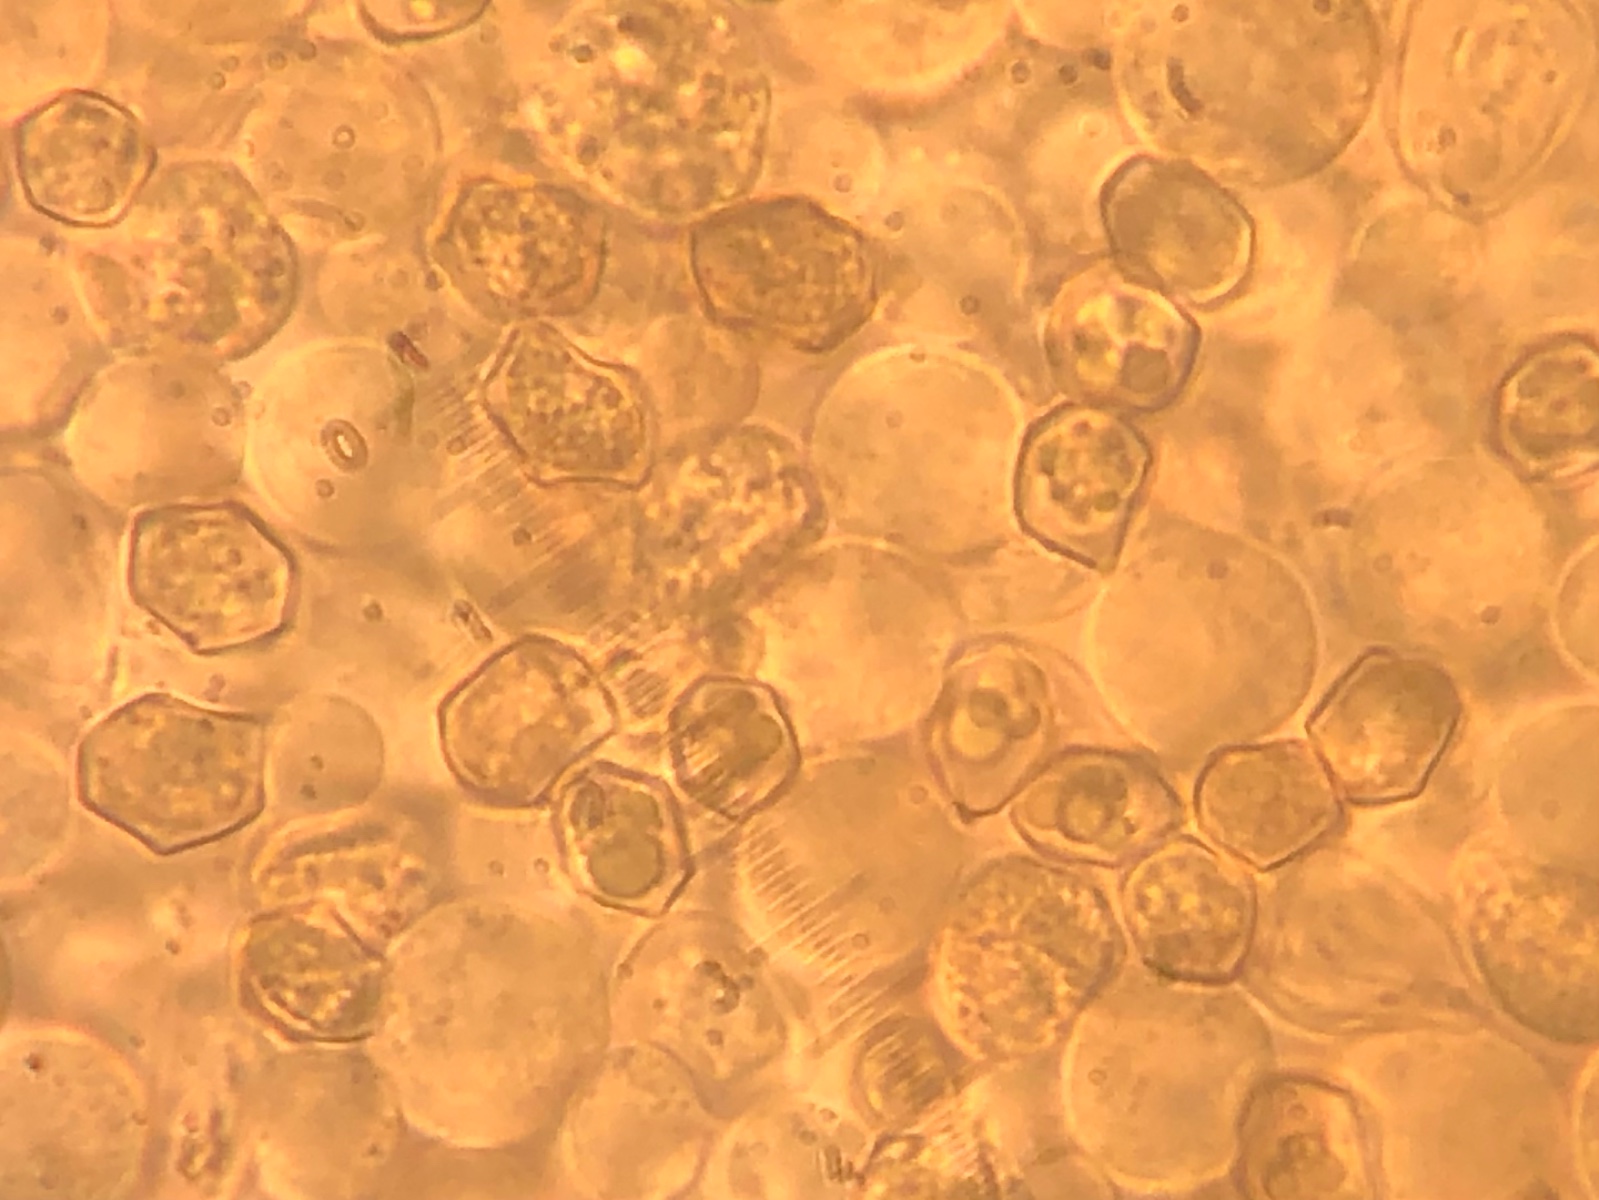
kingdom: Fungi
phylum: Basidiomycota
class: Agaricomycetes
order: Agaricales
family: Entolomataceae
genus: Entoloma
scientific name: Entoloma
